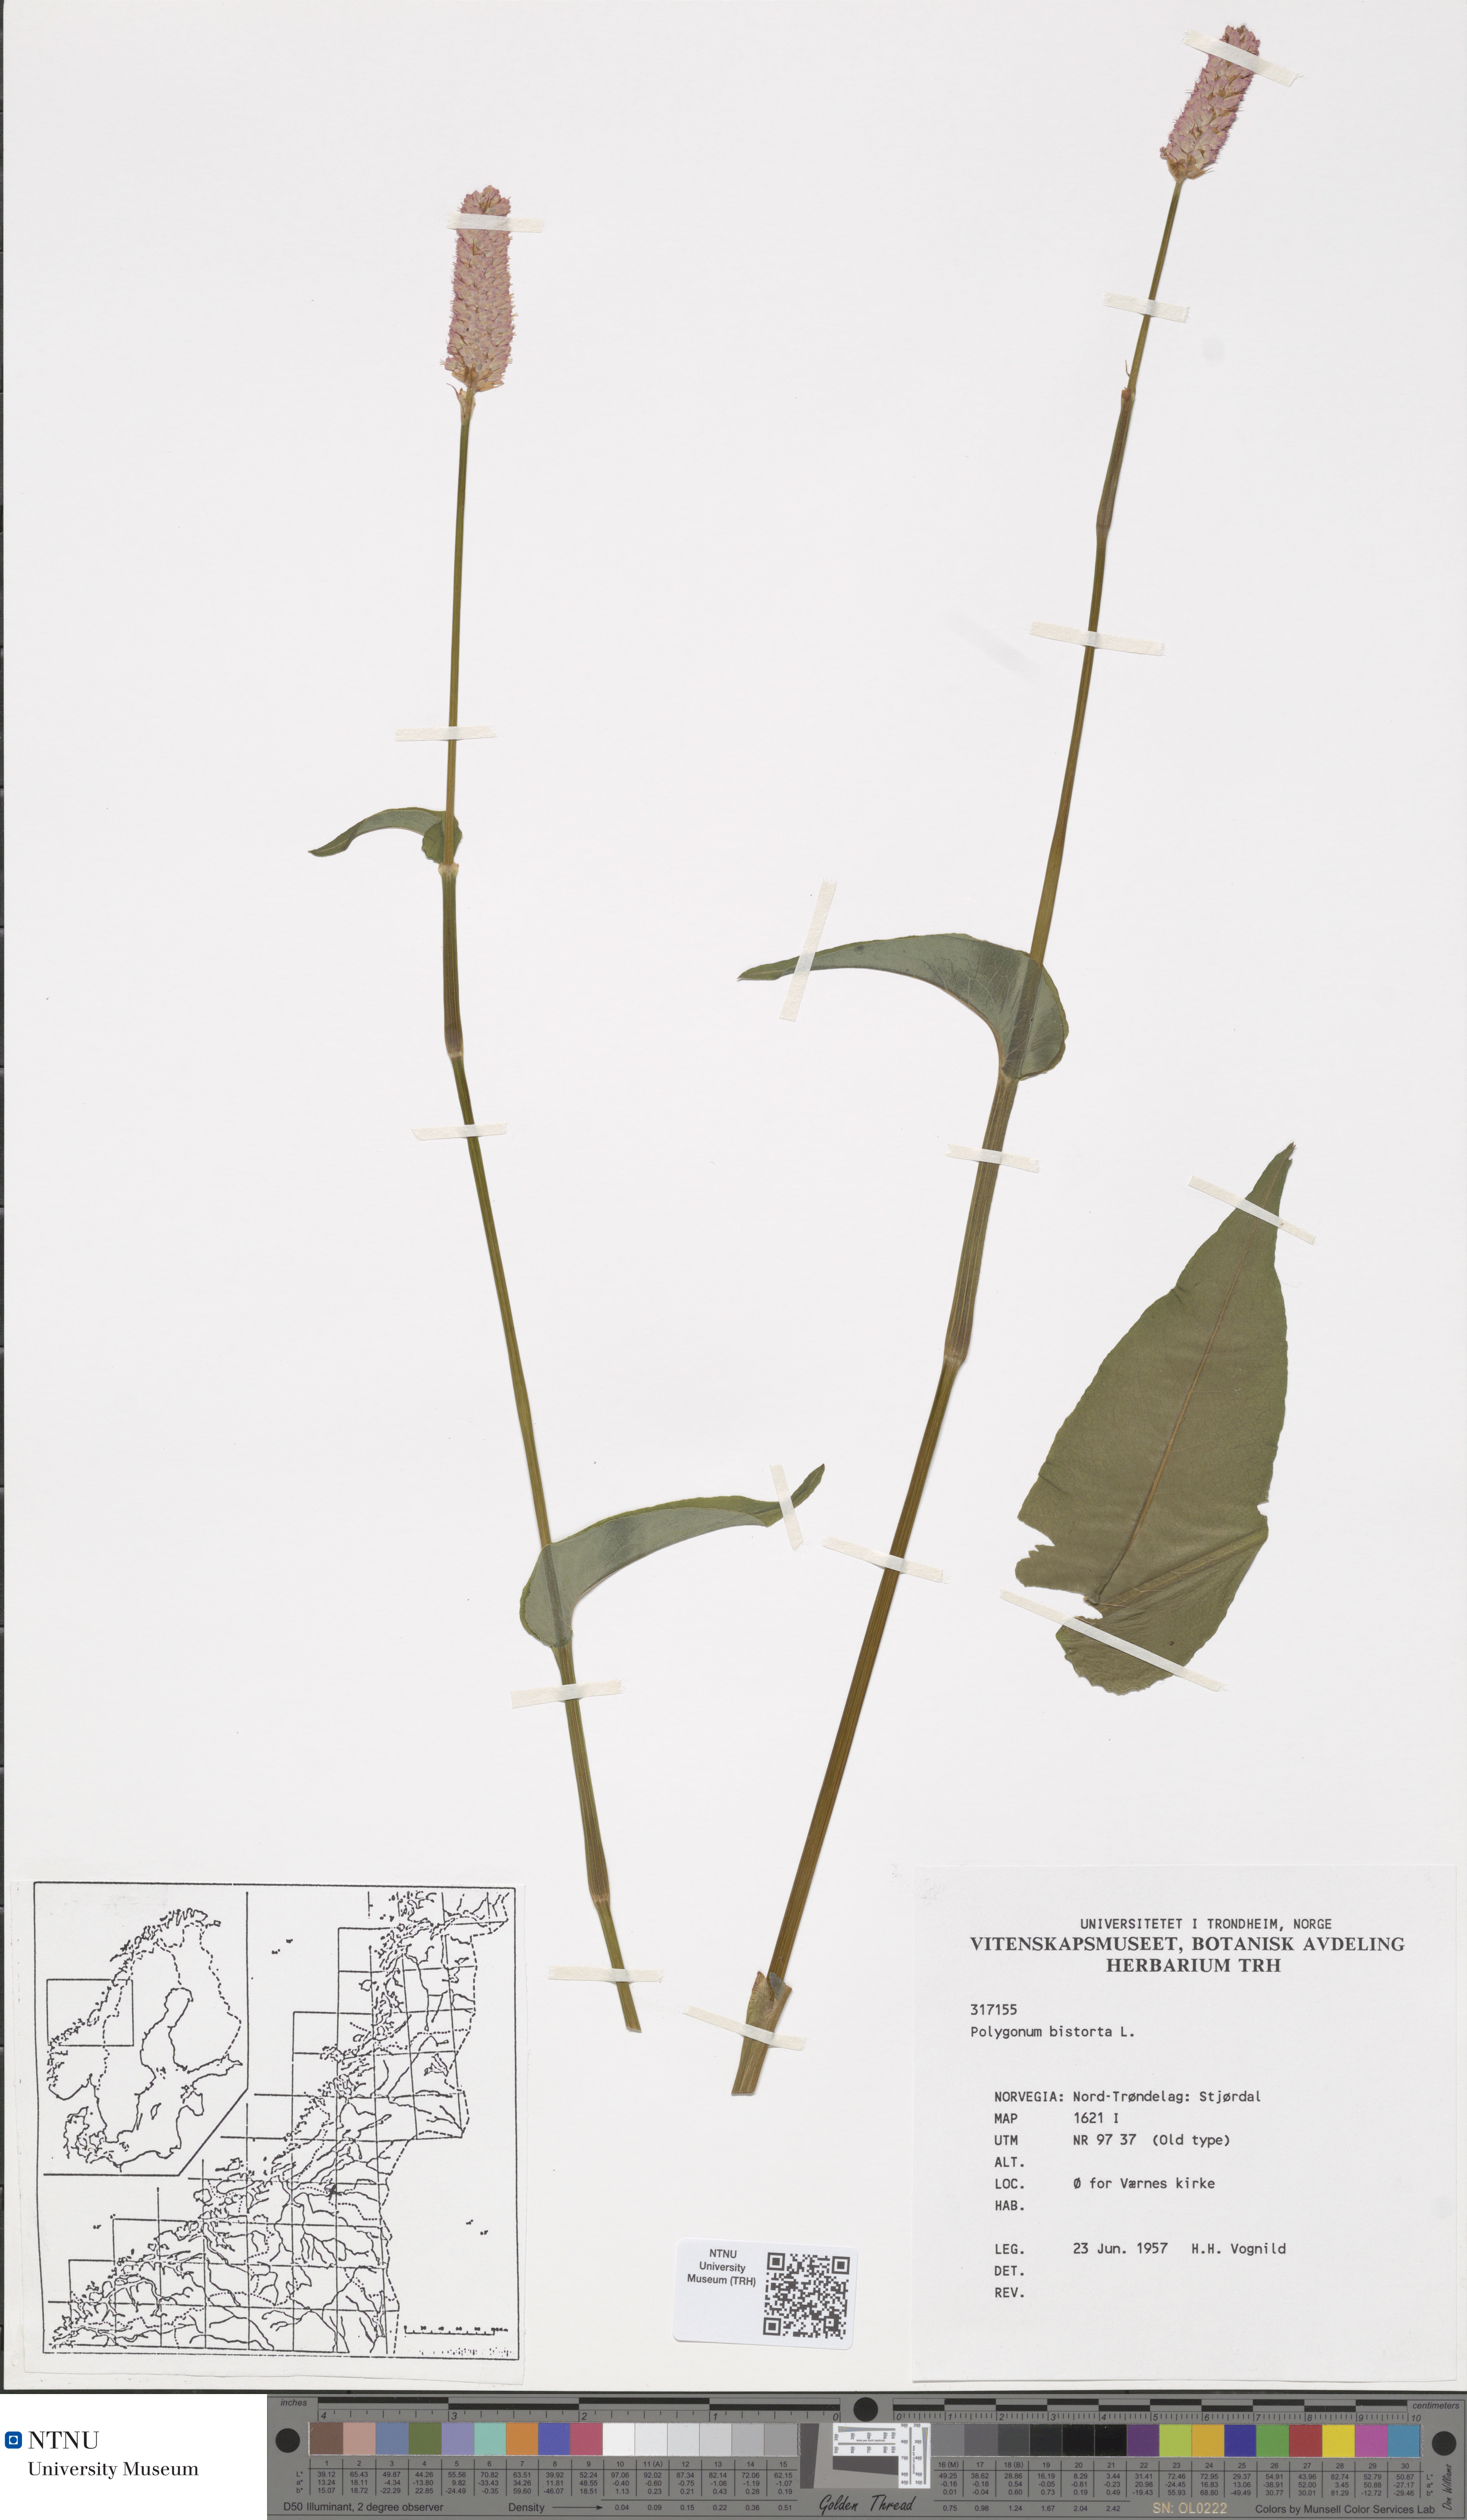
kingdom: Plantae
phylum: Tracheophyta
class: Magnoliopsida
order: Caryophyllales
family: Polygonaceae
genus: Bistorta
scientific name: Bistorta officinalis
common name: Common bistort
